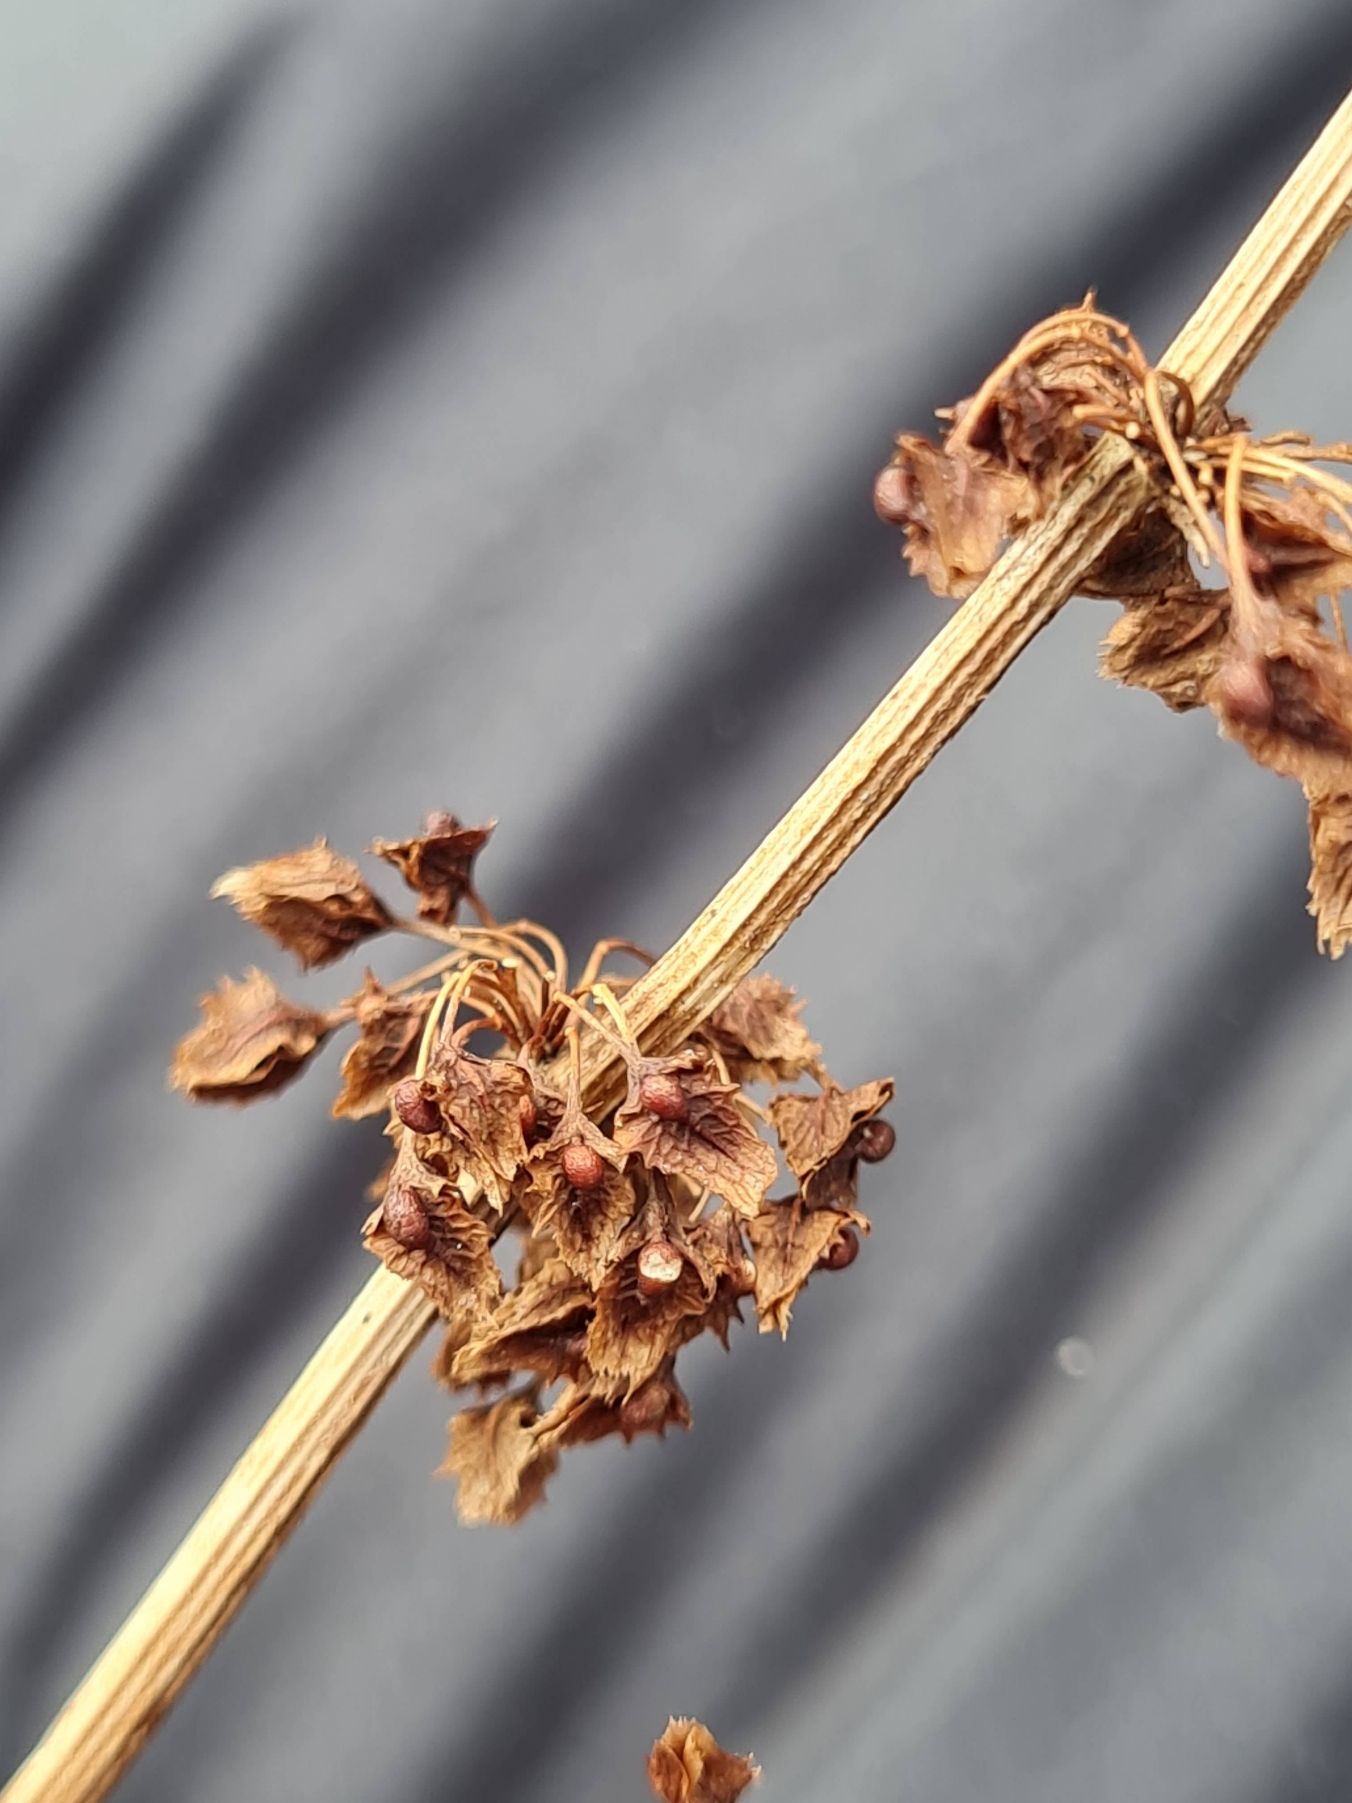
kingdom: Plantae
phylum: Tracheophyta
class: Magnoliopsida
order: Caryophyllales
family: Polygonaceae
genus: Rumex
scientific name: Rumex obtusifolius
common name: Butbladet skræppe
